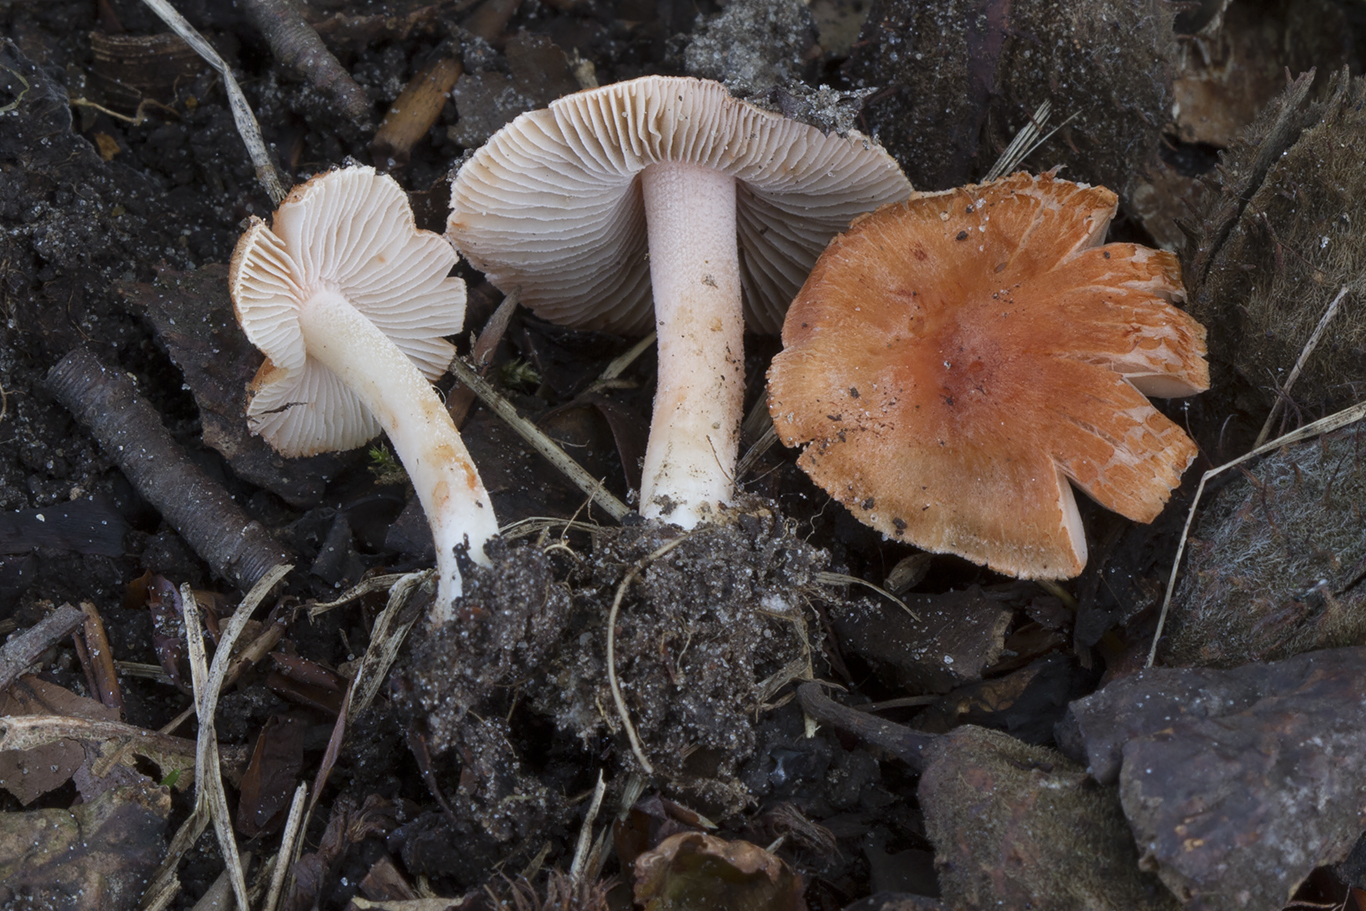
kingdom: Fungi
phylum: Basidiomycota
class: Agaricomycetes
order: Agaricales
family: Inocybaceae
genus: Inocybe
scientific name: Inocybe godeyi
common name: orangerødmende trævlhat
